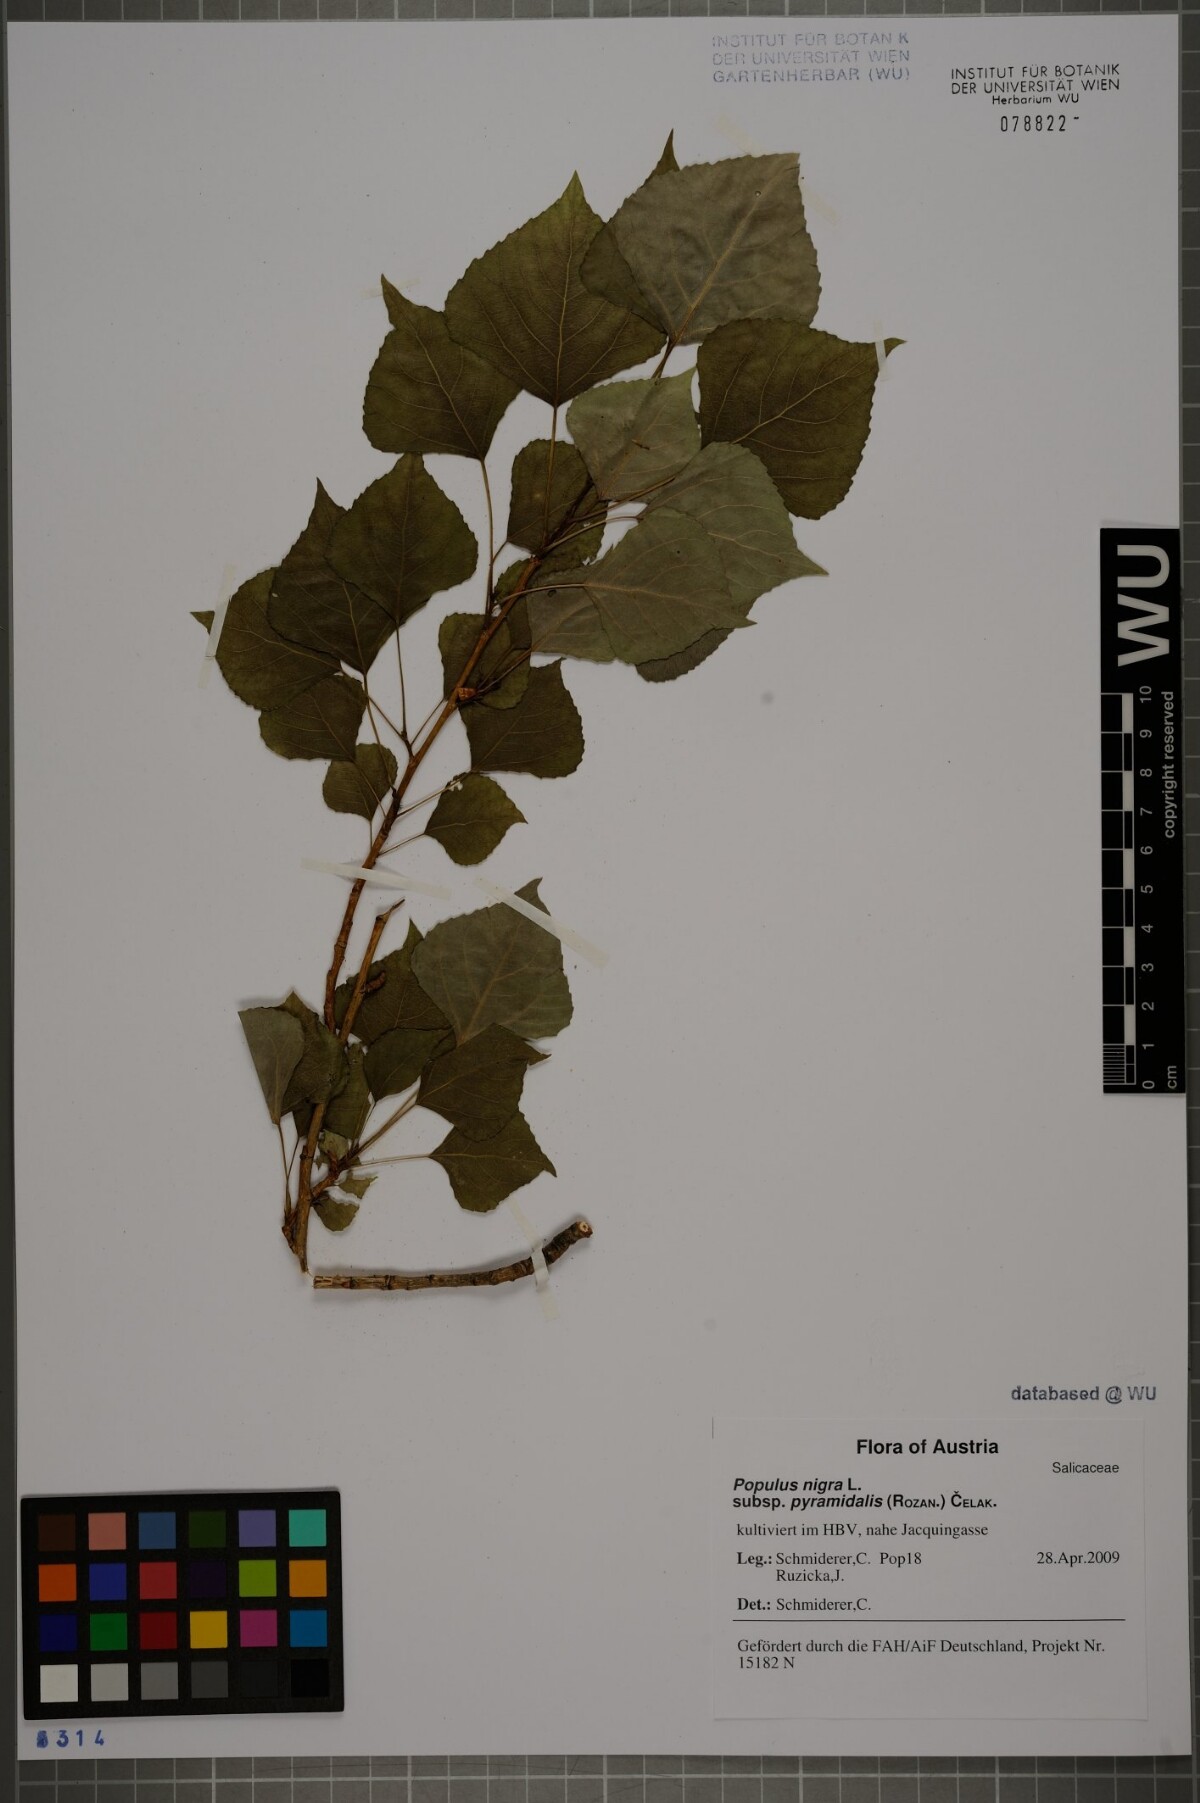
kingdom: Plantae
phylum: Tracheophyta
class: Magnoliopsida
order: Malpighiales
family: Salicaceae
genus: Populus
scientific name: Populus nigra
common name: Black poplar
